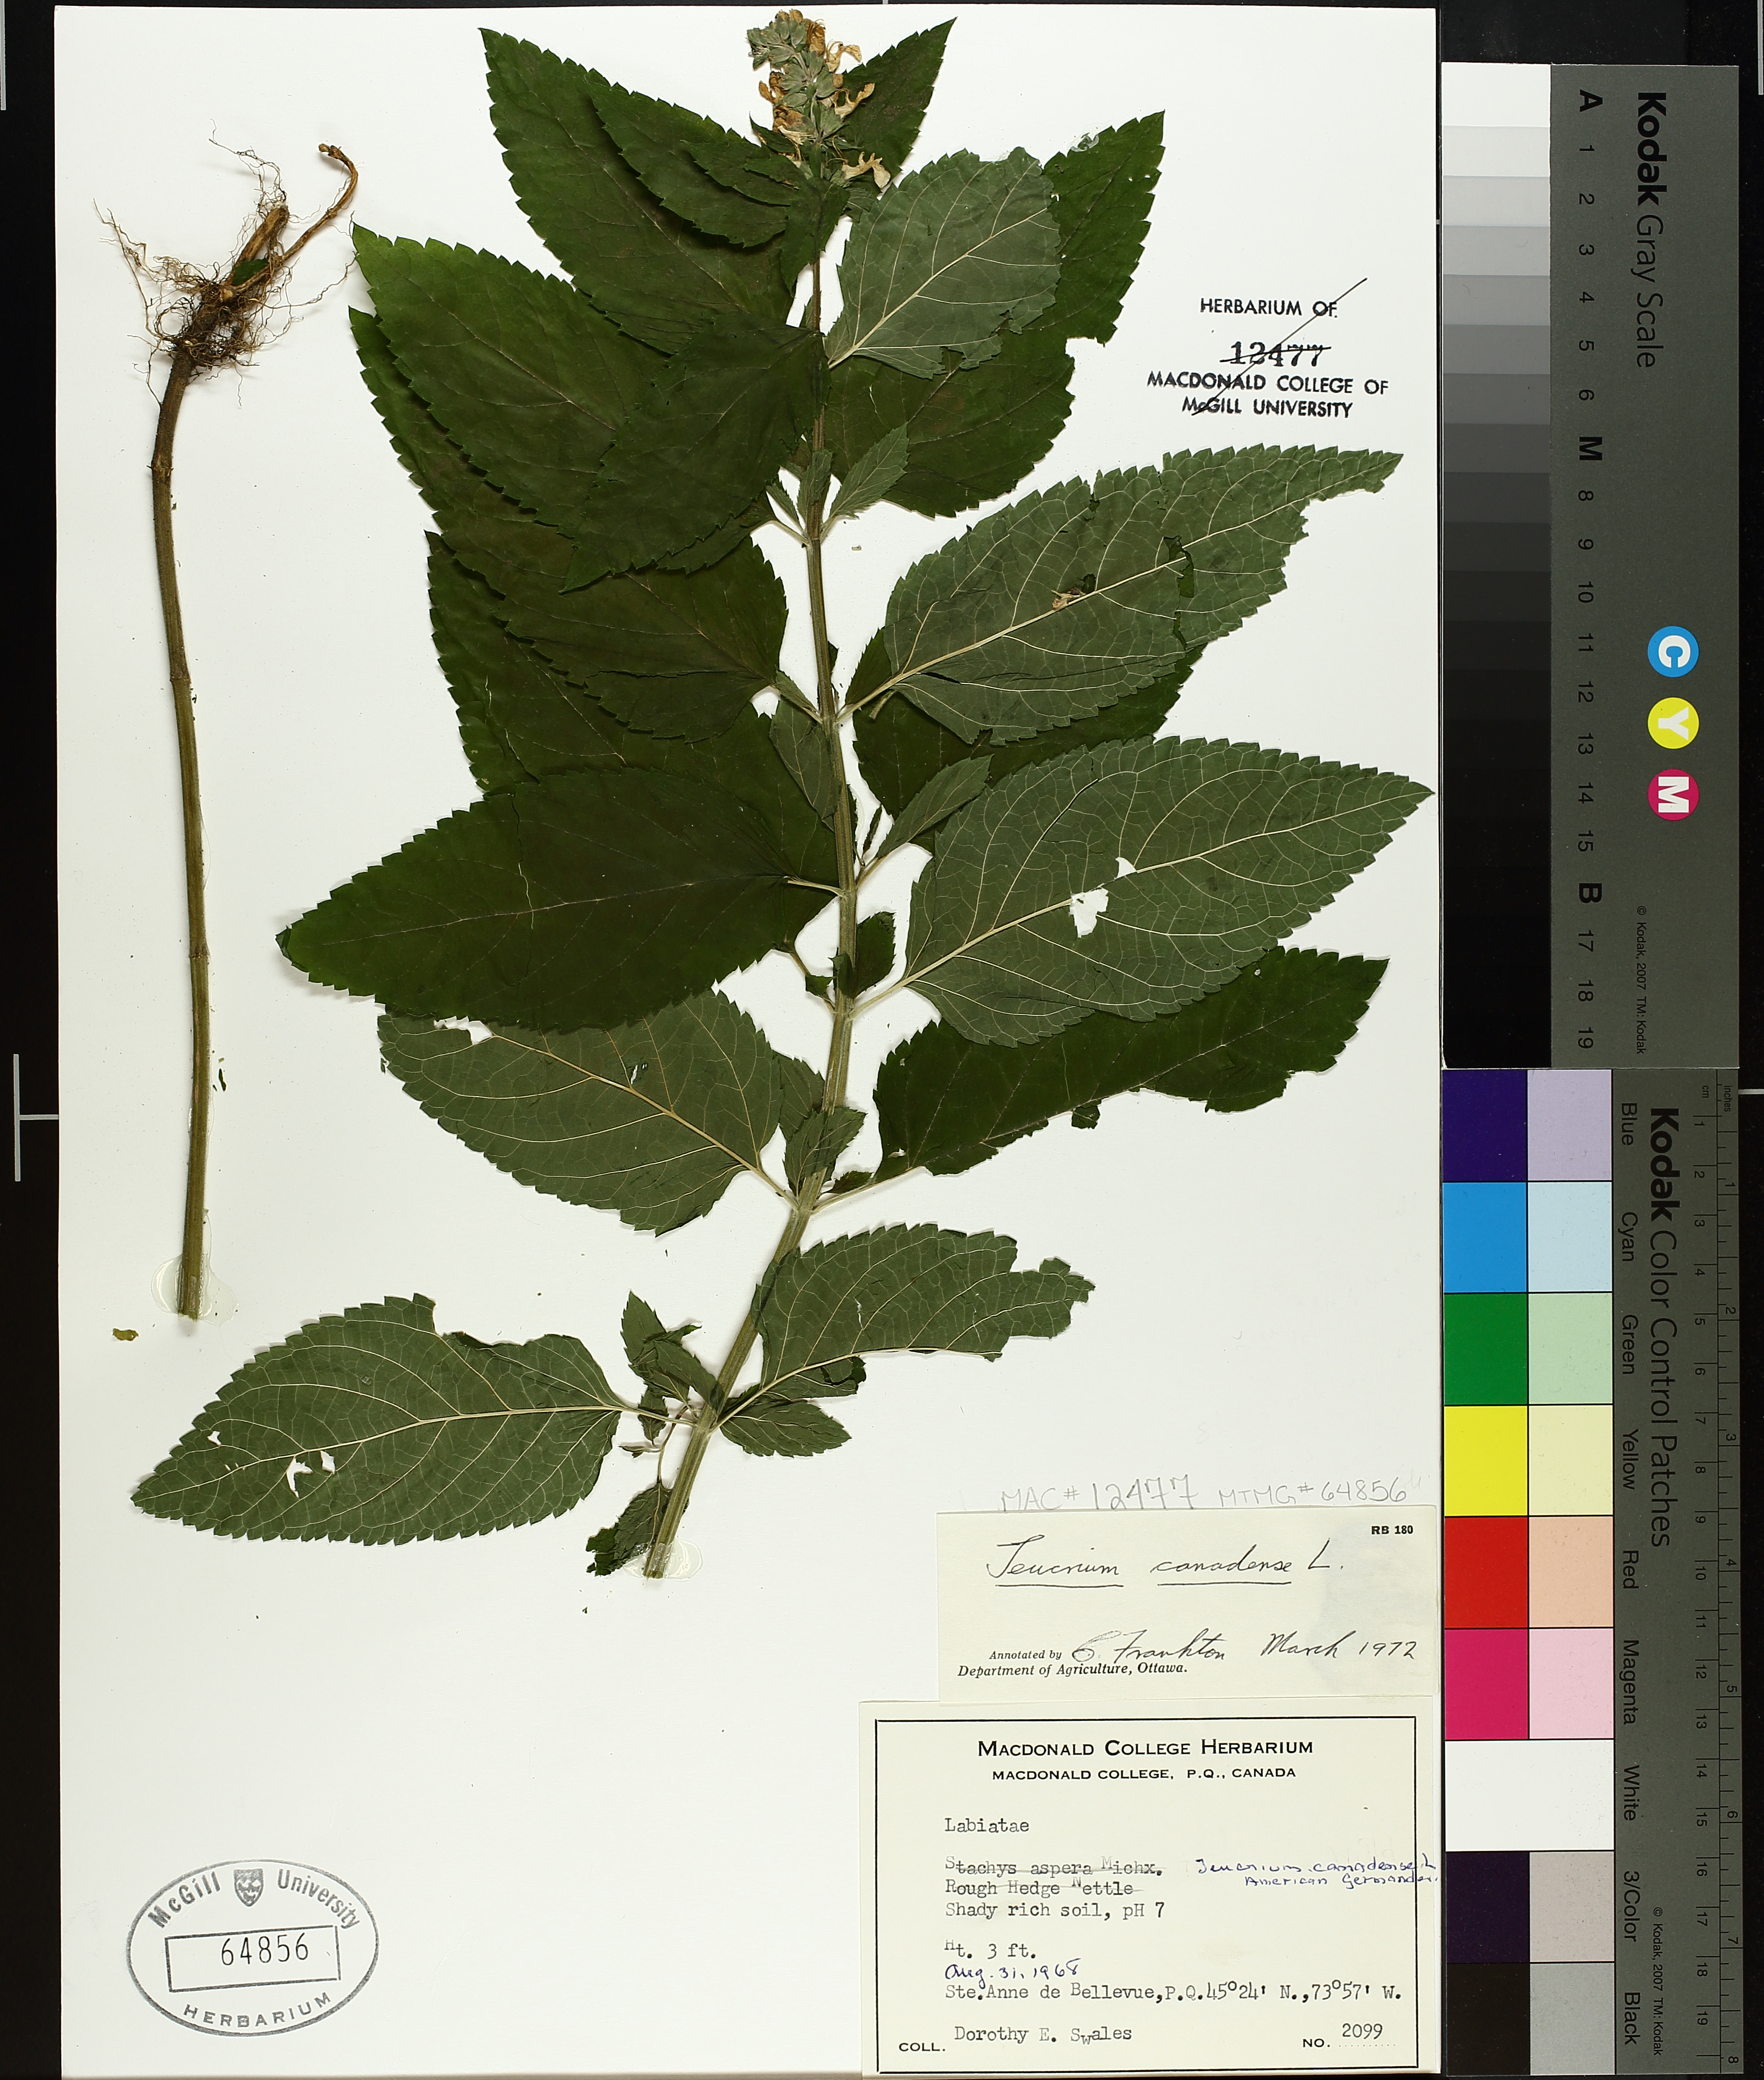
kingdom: Plantae
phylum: Tracheophyta
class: Magnoliopsida
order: Lamiales
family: Lamiaceae
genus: Teucrium
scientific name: Teucrium canadense
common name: American germander
